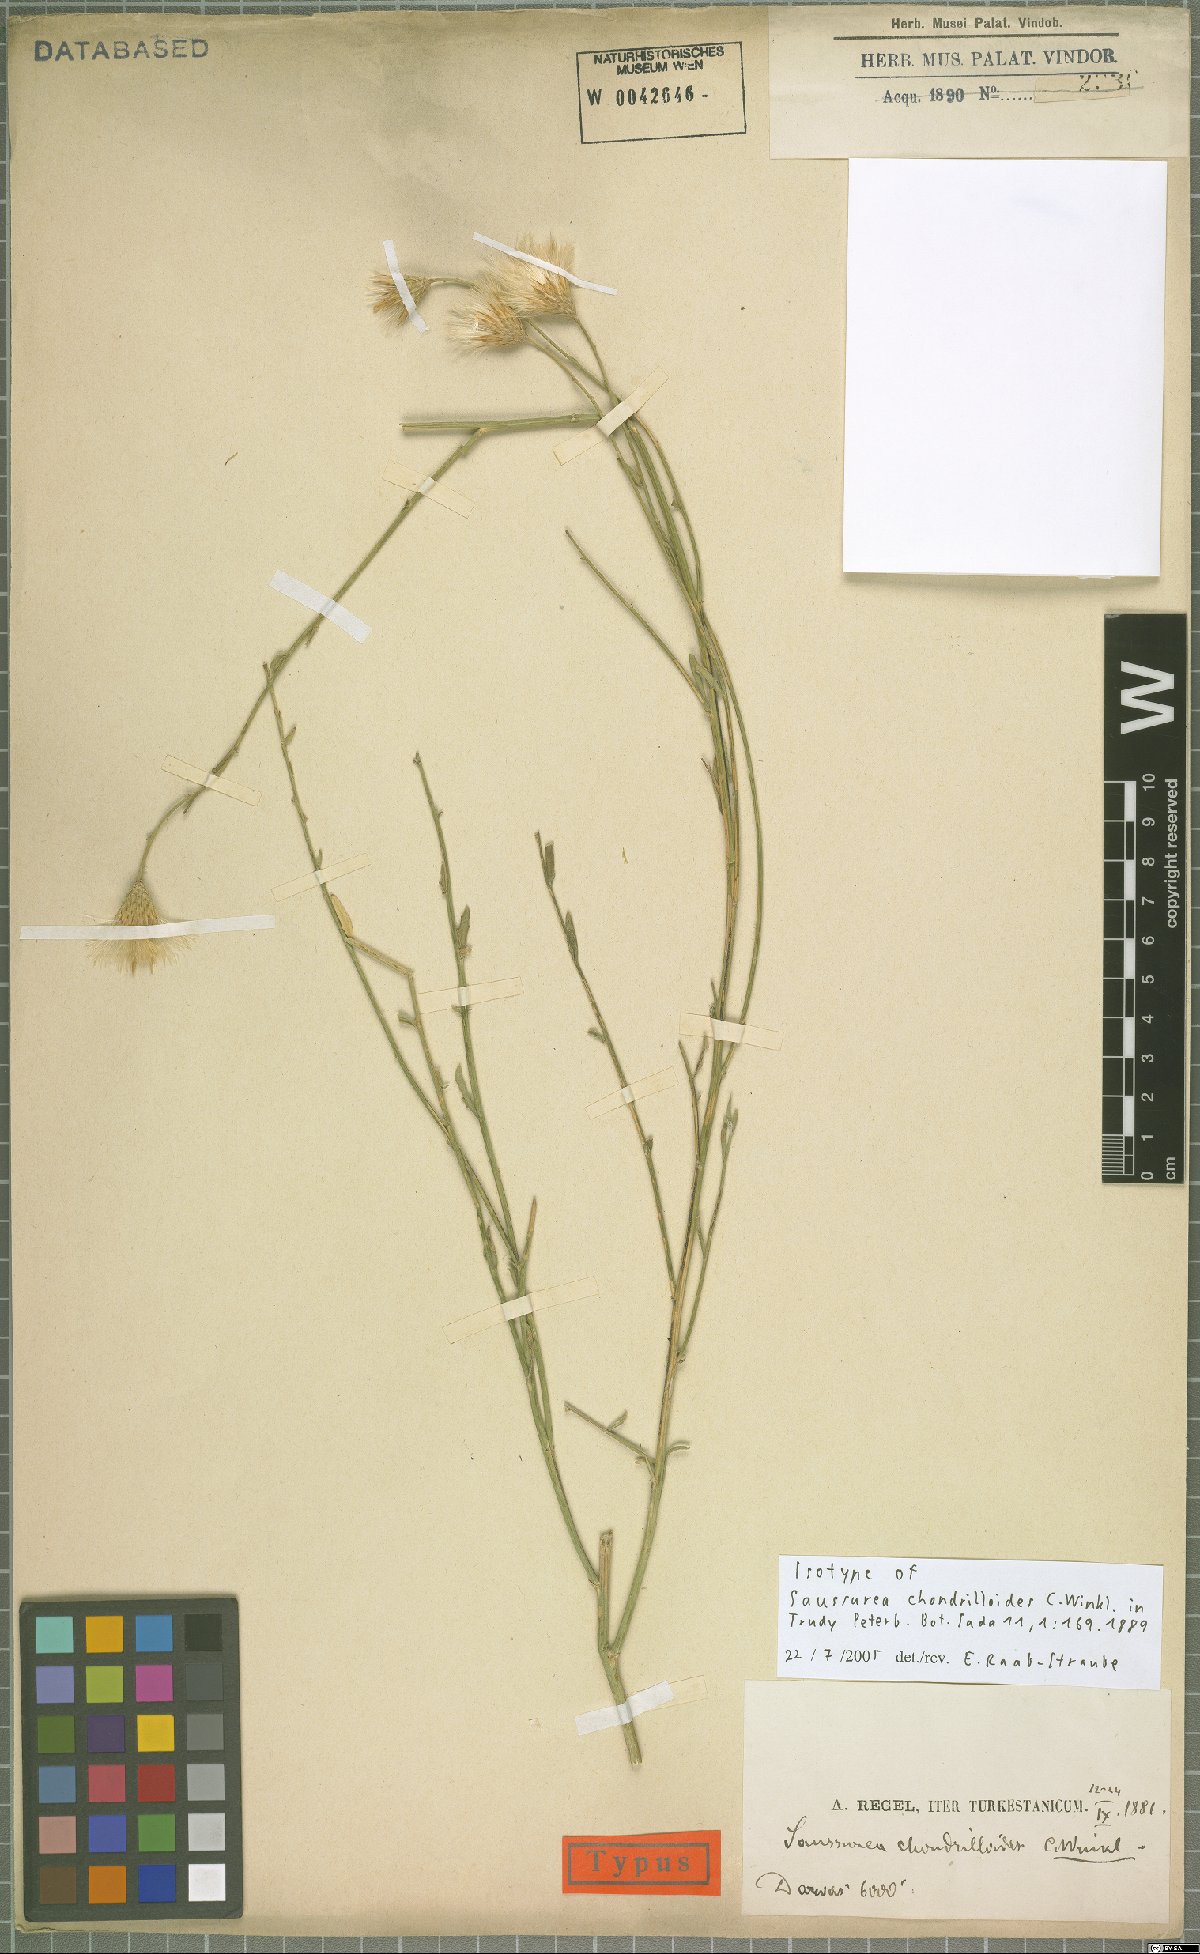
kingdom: Plantae
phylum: Tracheophyta
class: Magnoliopsida
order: Asterales
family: Asteraceae
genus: Saussurea
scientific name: Saussurea chondrilloides
